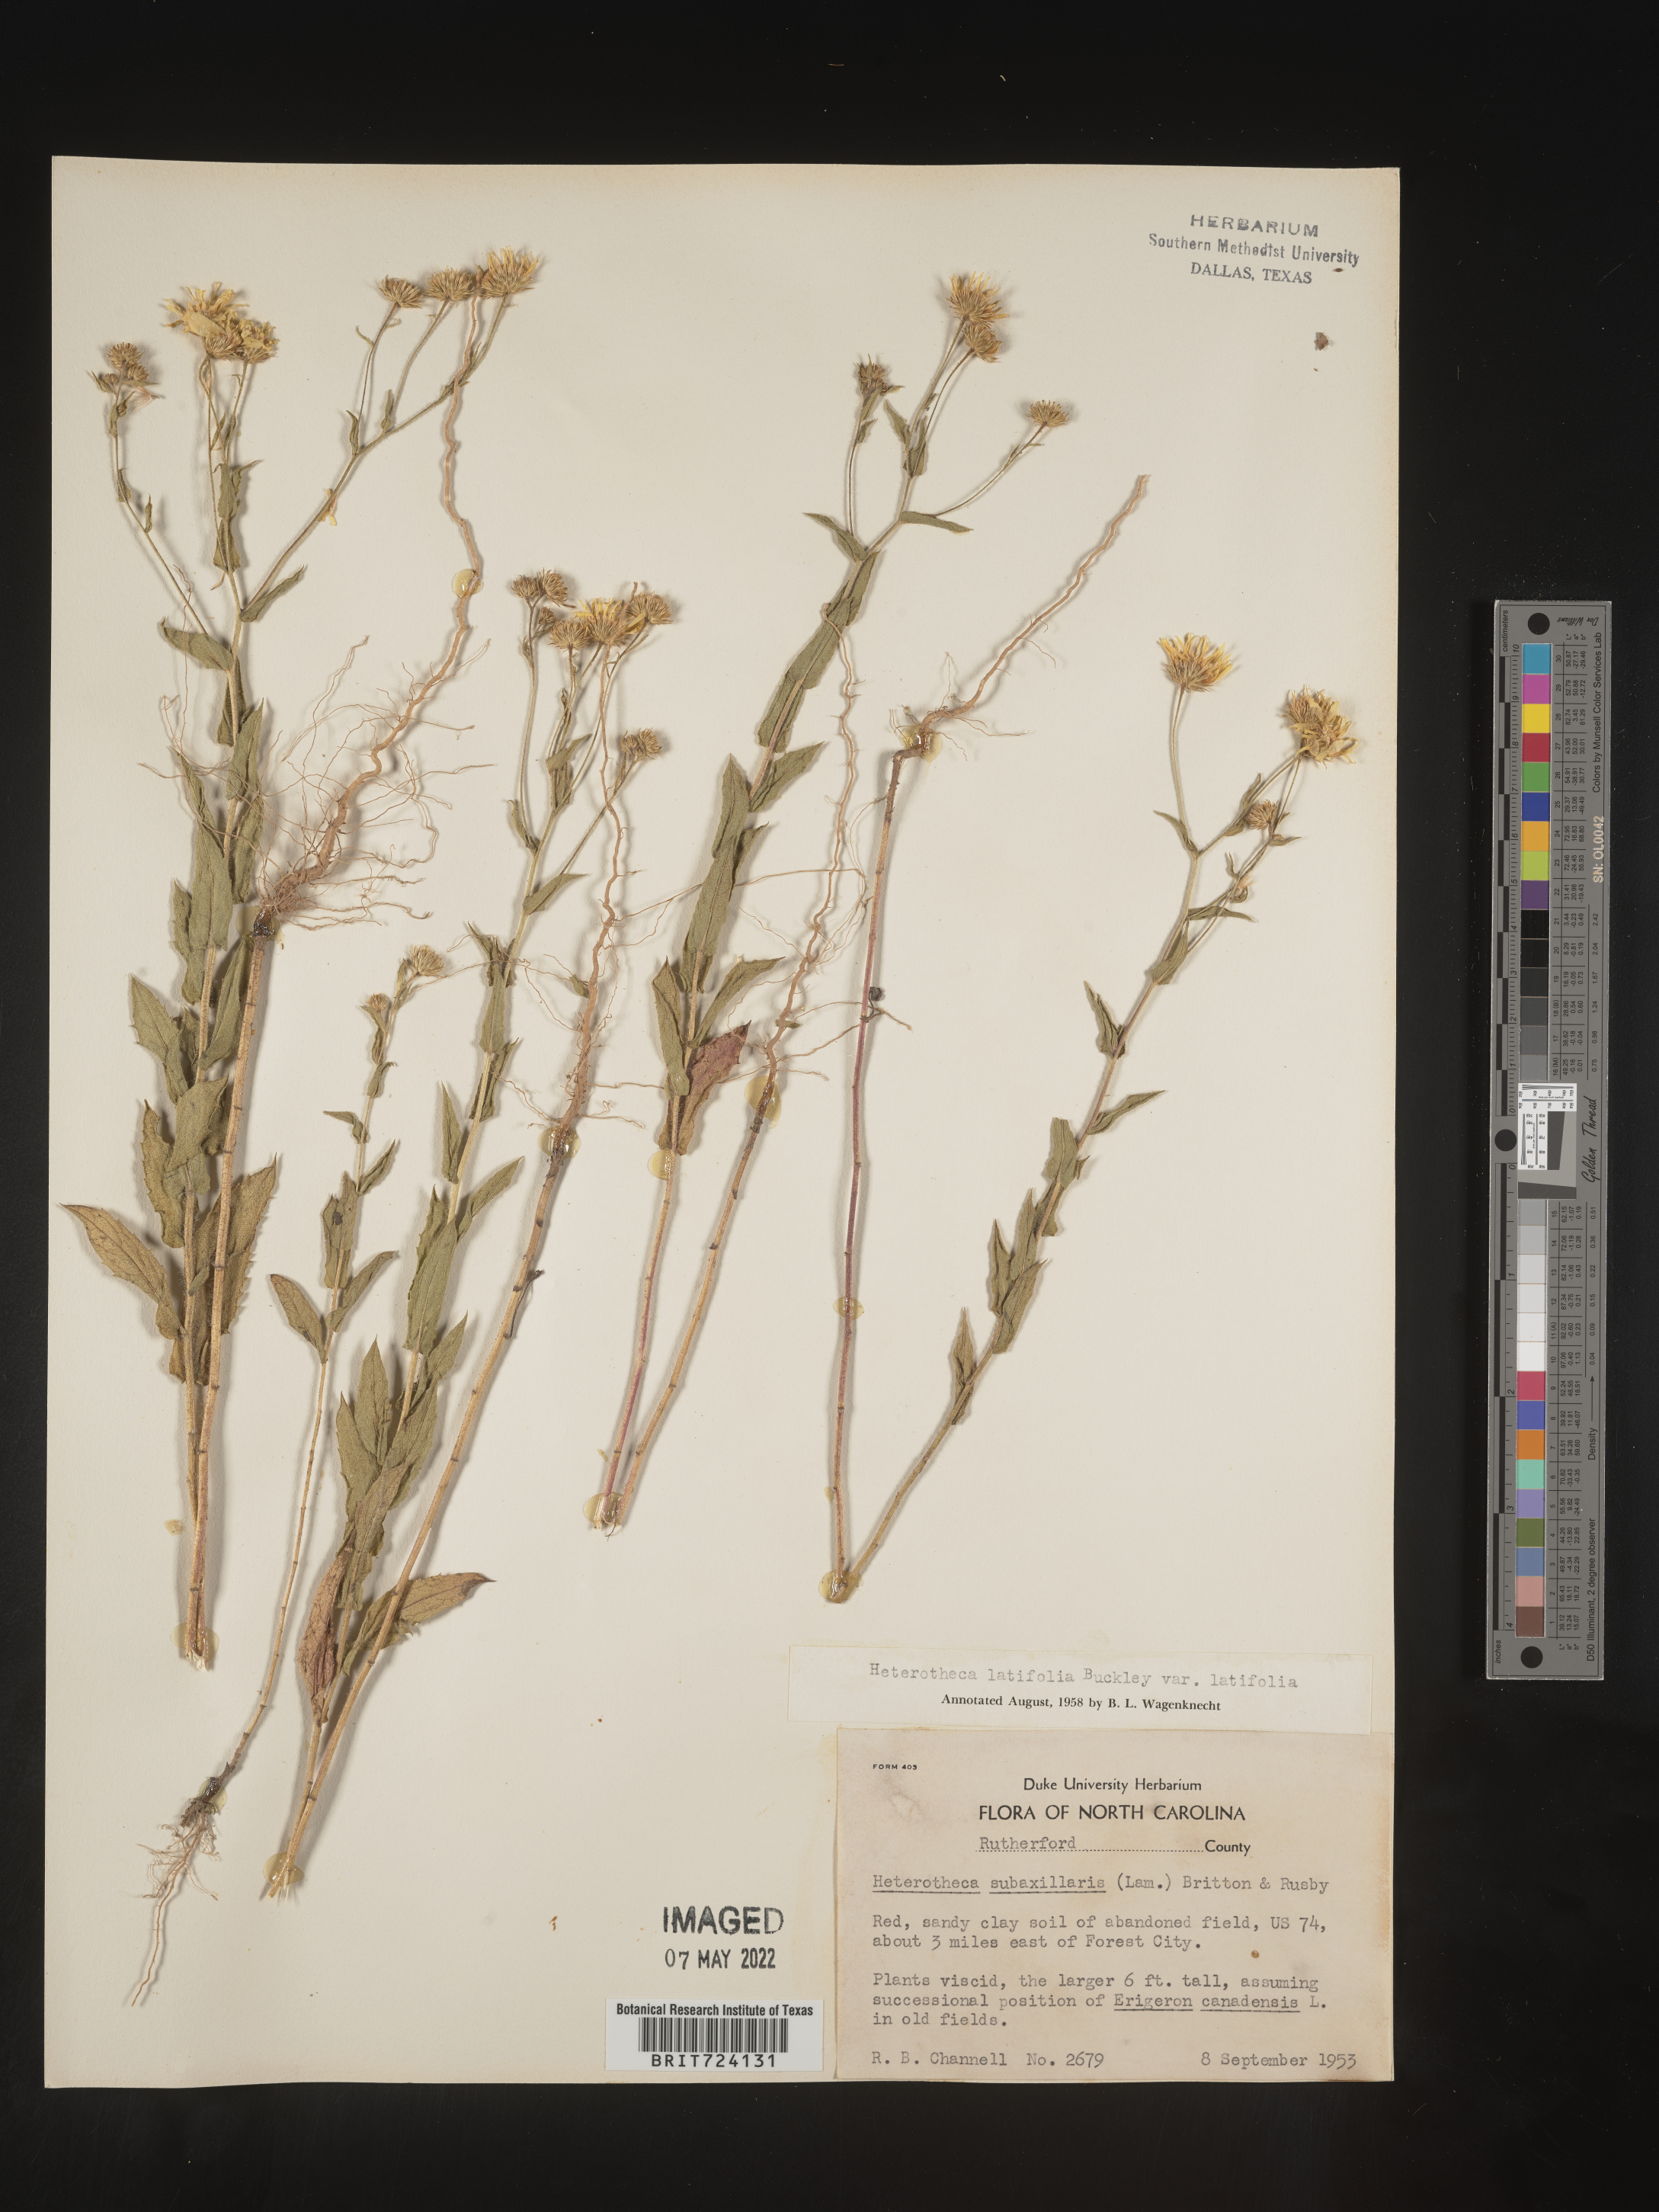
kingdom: Plantae
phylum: Tracheophyta
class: Magnoliopsida
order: Asterales
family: Asteraceae
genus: Heterotheca
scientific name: Heterotheca subaxillaris
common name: Camphorweed
